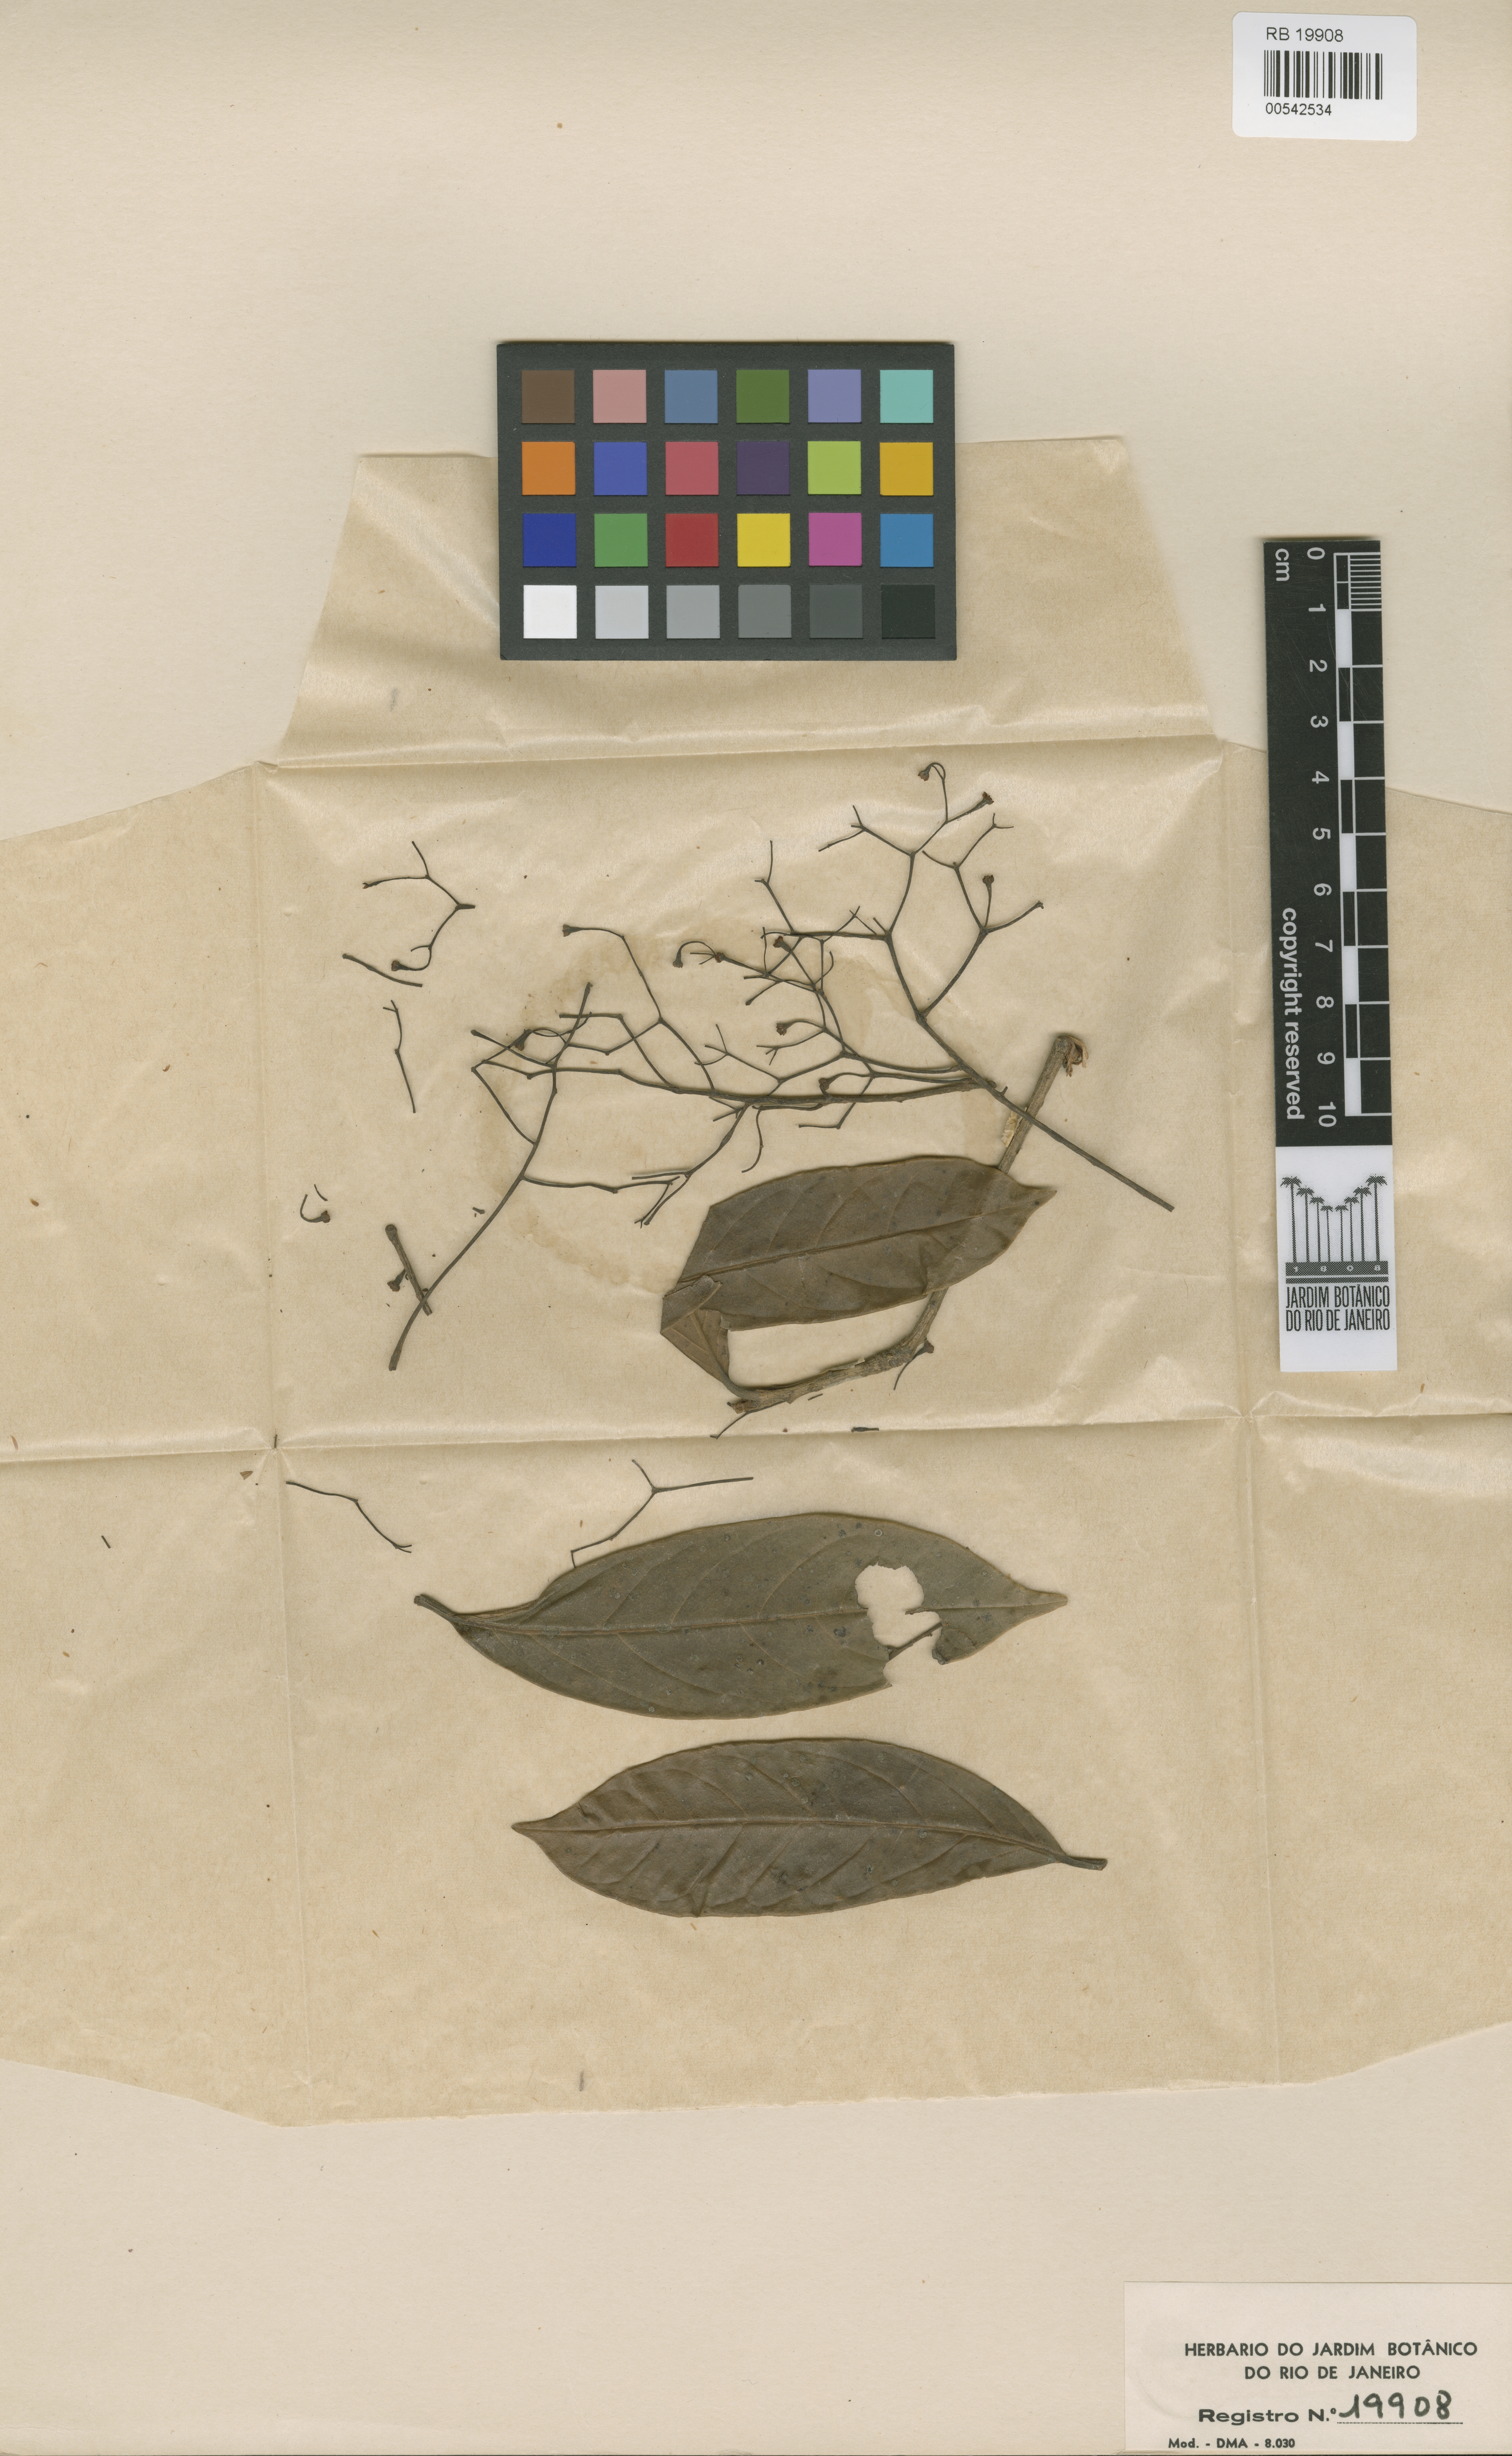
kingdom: Plantae
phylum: Tracheophyta
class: Magnoliopsida
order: Laurales
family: Lauraceae
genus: Aniba
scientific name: Aniba pedicellata
